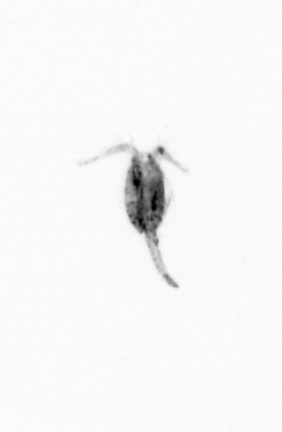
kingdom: Animalia
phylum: Arthropoda
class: Copepoda
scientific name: Copepoda
